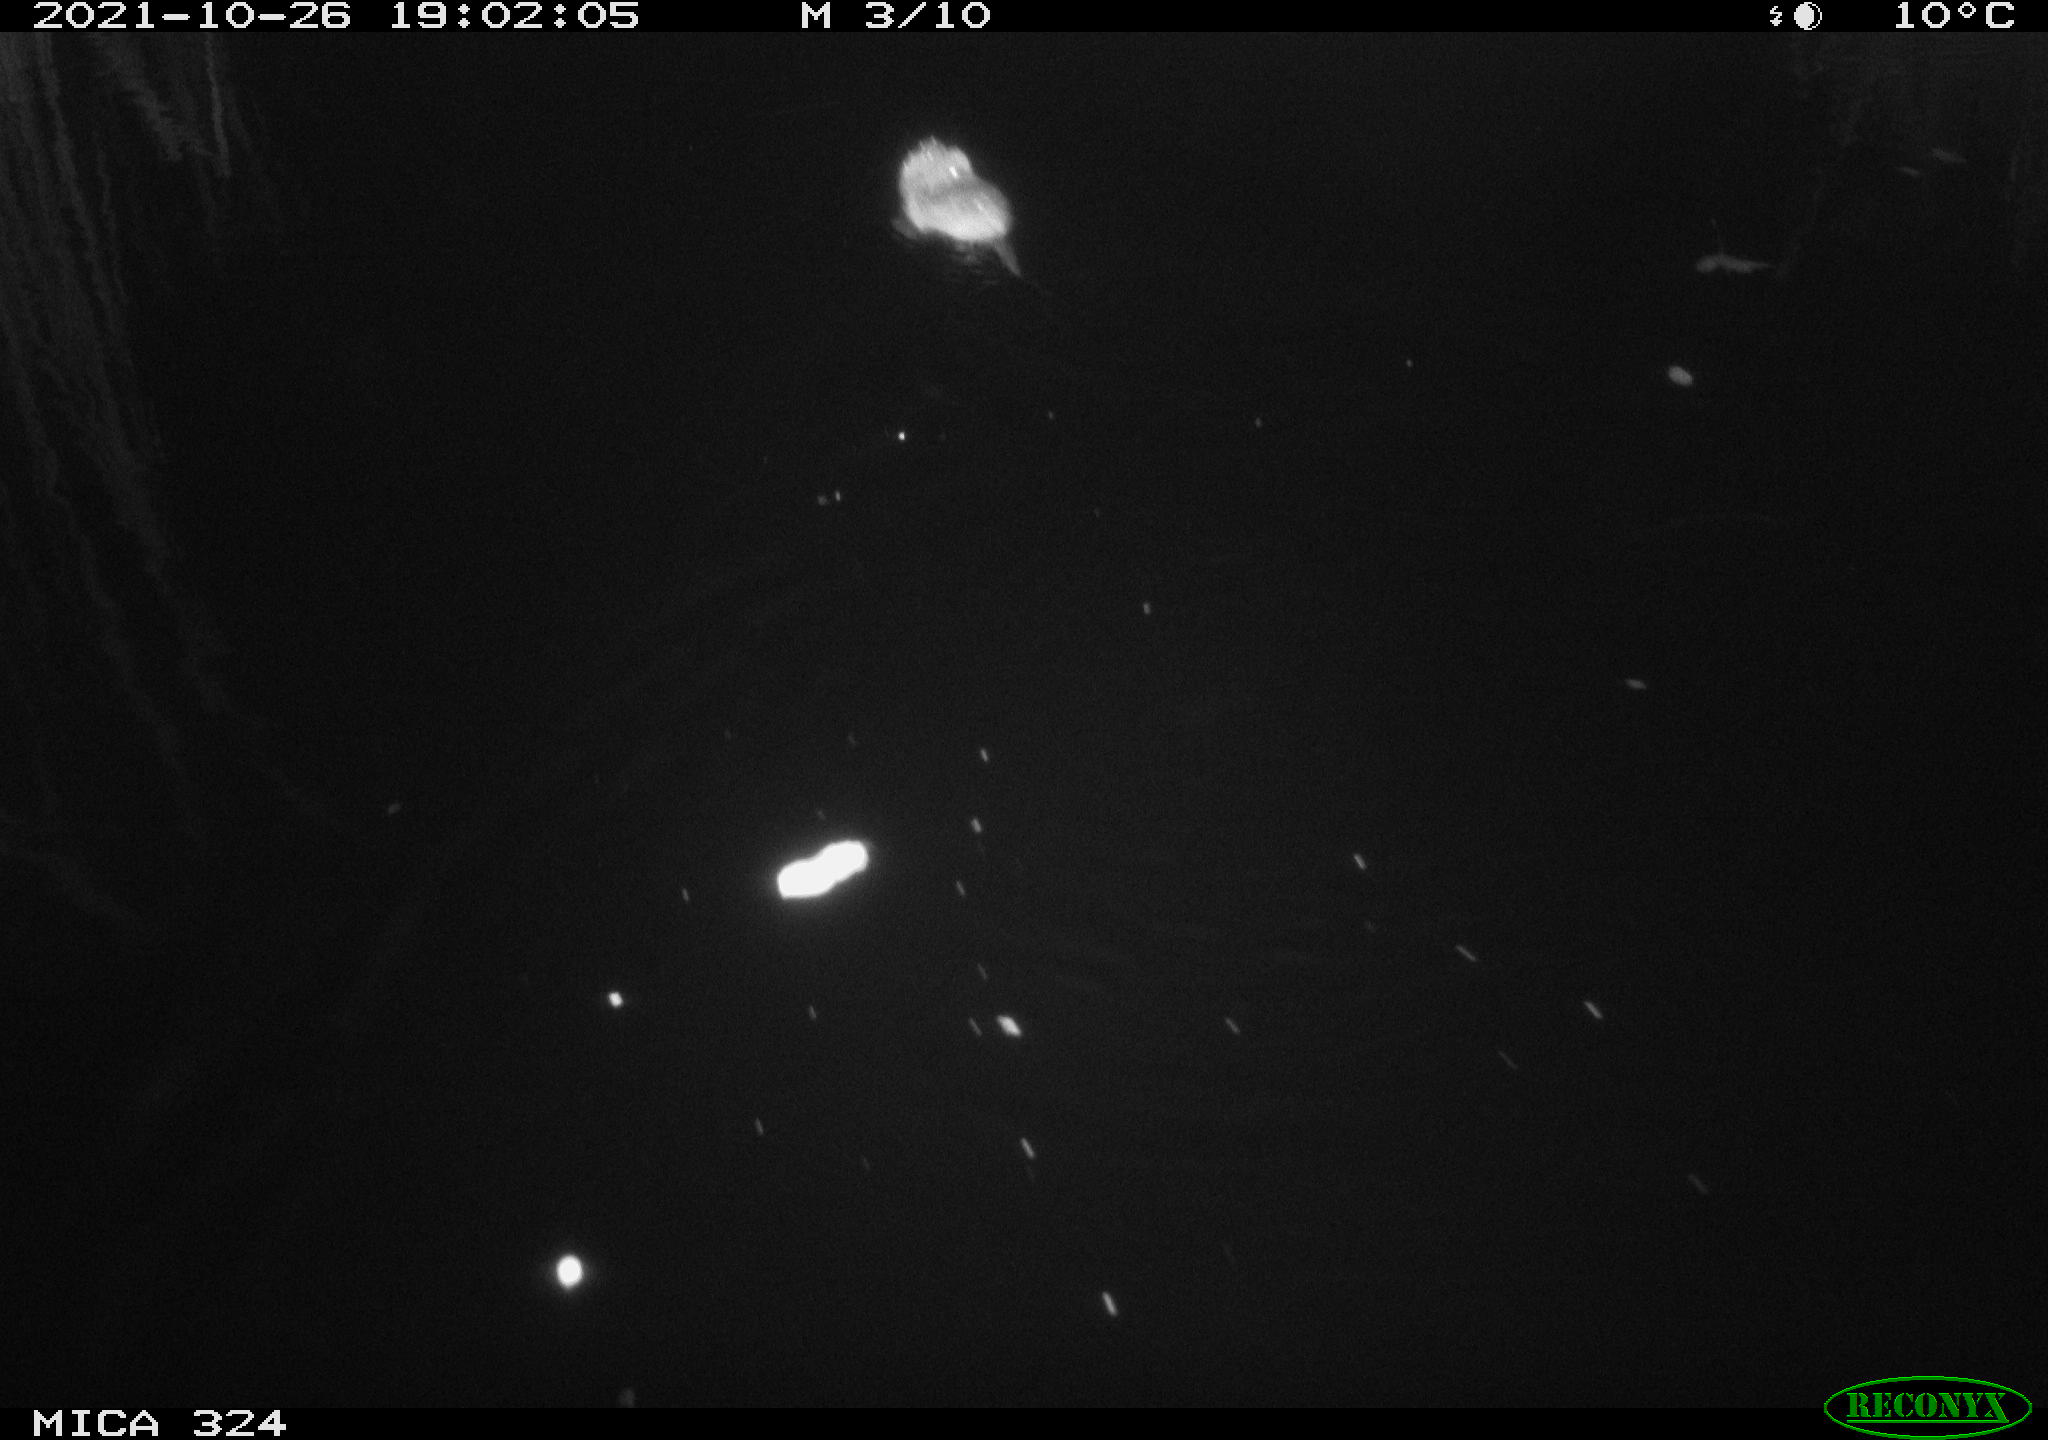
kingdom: Animalia
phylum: Chordata
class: Mammalia
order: Rodentia
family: Cricetidae
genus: Ondatra
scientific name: Ondatra zibethicus
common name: Muskrat
